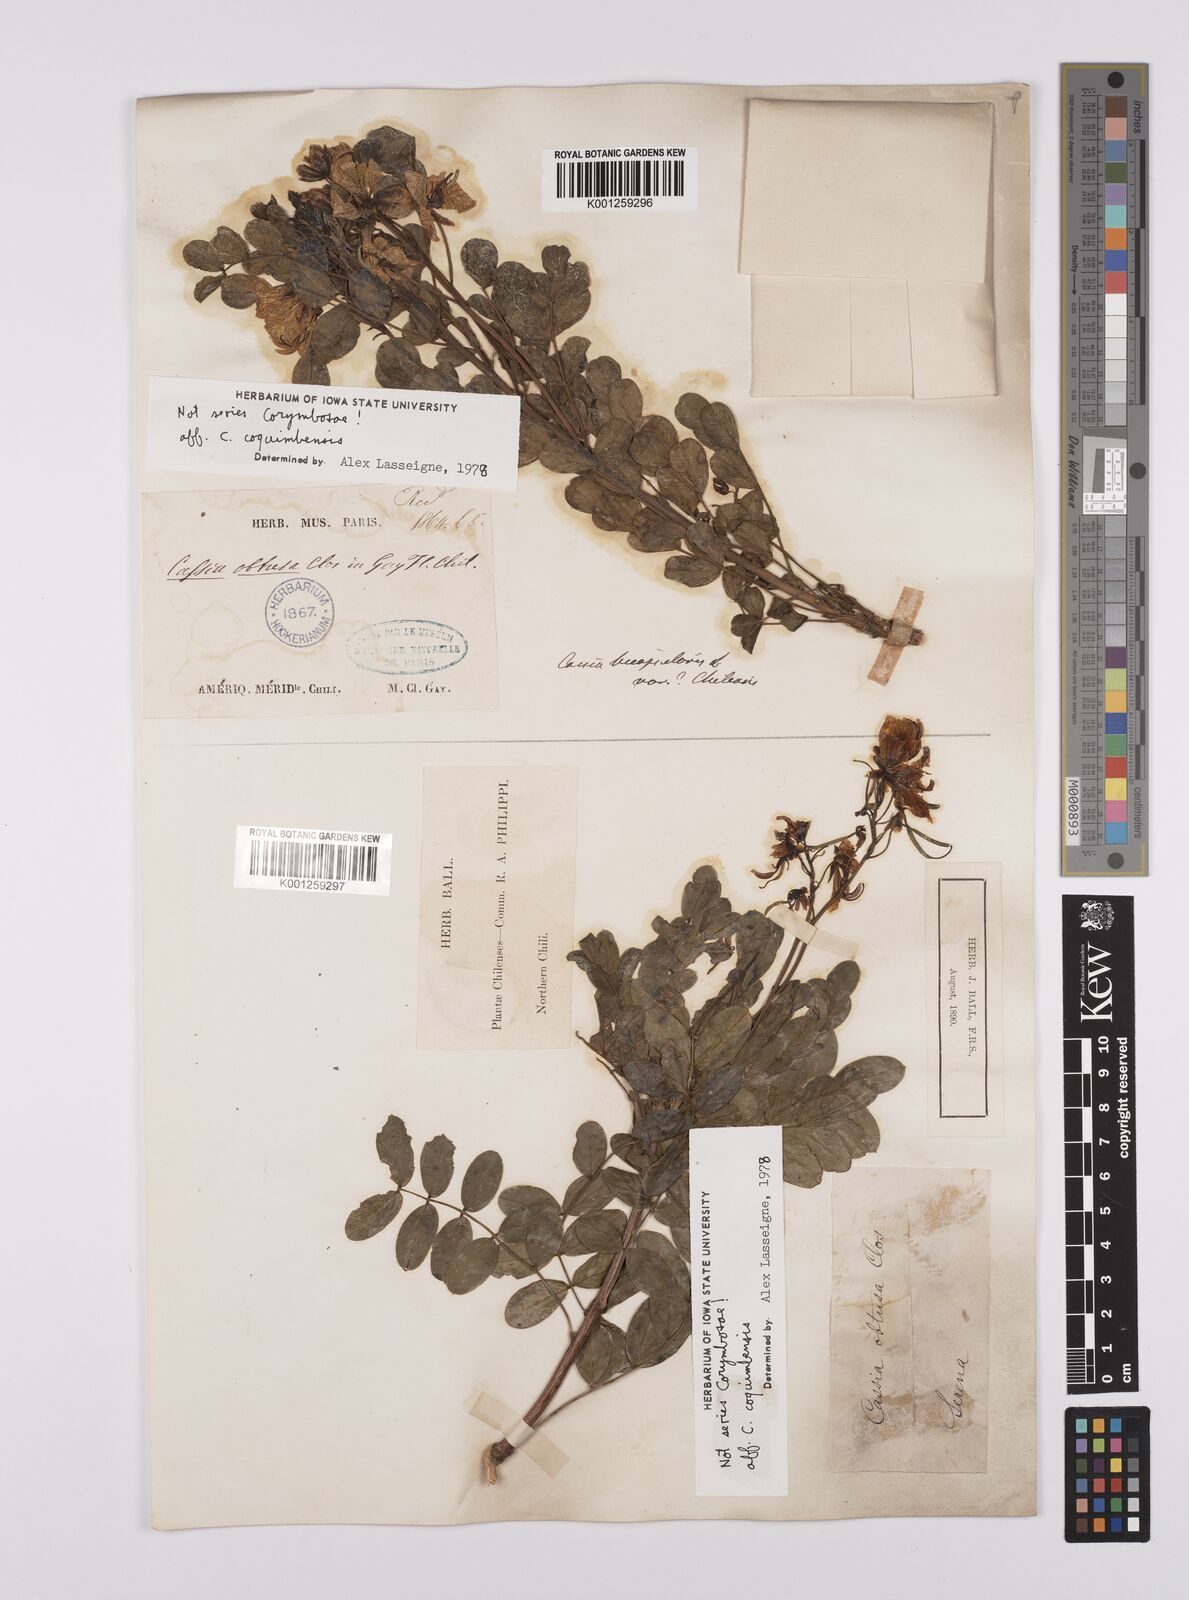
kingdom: Plantae
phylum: Tracheophyta
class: Magnoliopsida
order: Fabales
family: Fabaceae
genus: Senna
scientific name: Senna
